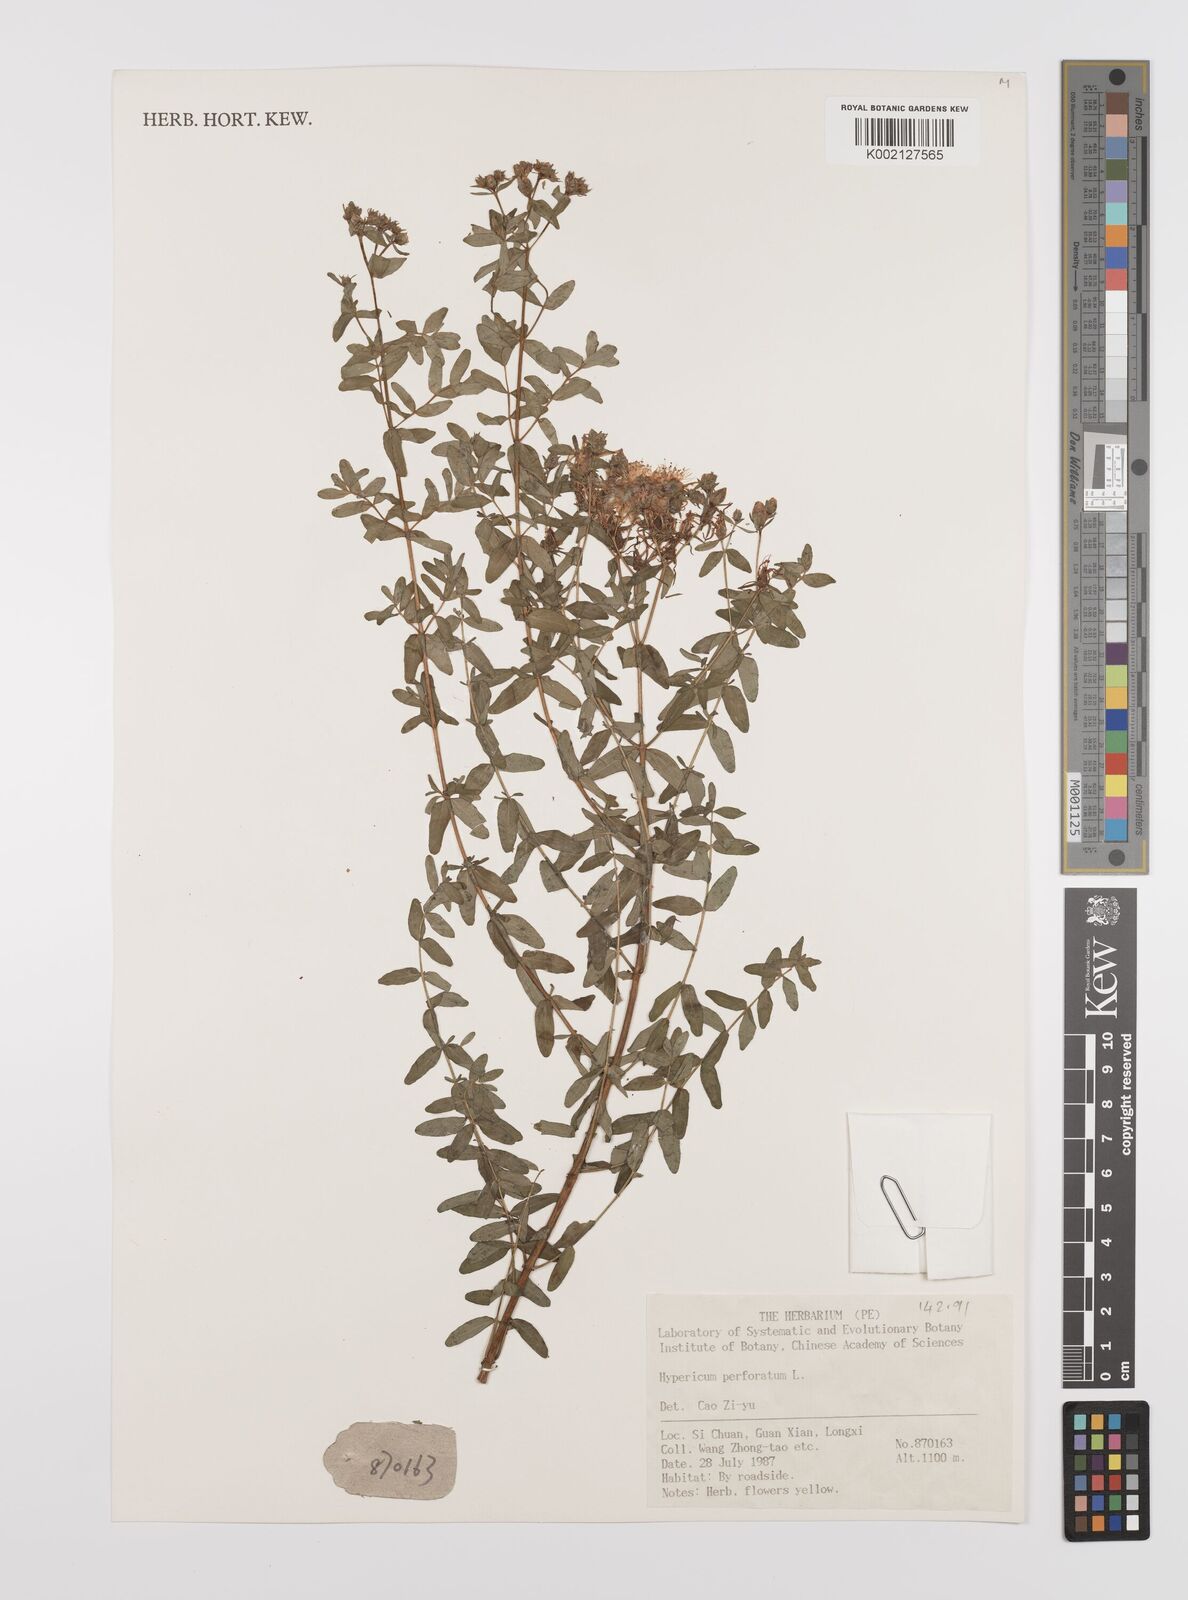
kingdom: Plantae
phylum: Tracheophyta
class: Magnoliopsida
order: Malpighiales
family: Hypericaceae
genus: Hypericum
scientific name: Hypericum perforatum
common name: Common st. johnswort
